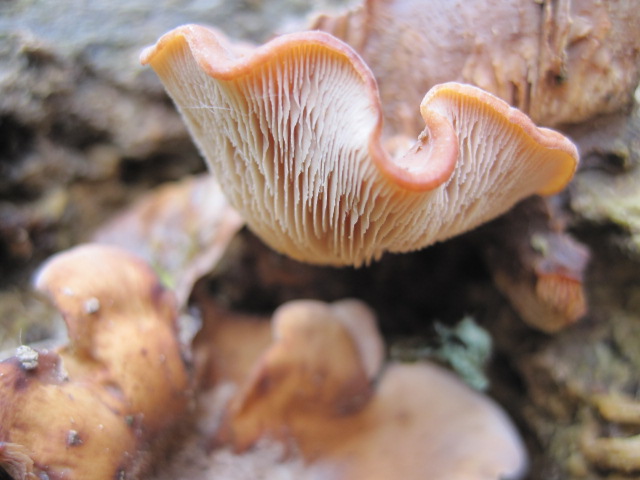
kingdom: Fungi
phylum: Basidiomycota
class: Agaricomycetes
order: Russulales
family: Auriscalpiaceae
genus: Lentinellus
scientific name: Lentinellus ursinus
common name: børstehåret savbladhat
